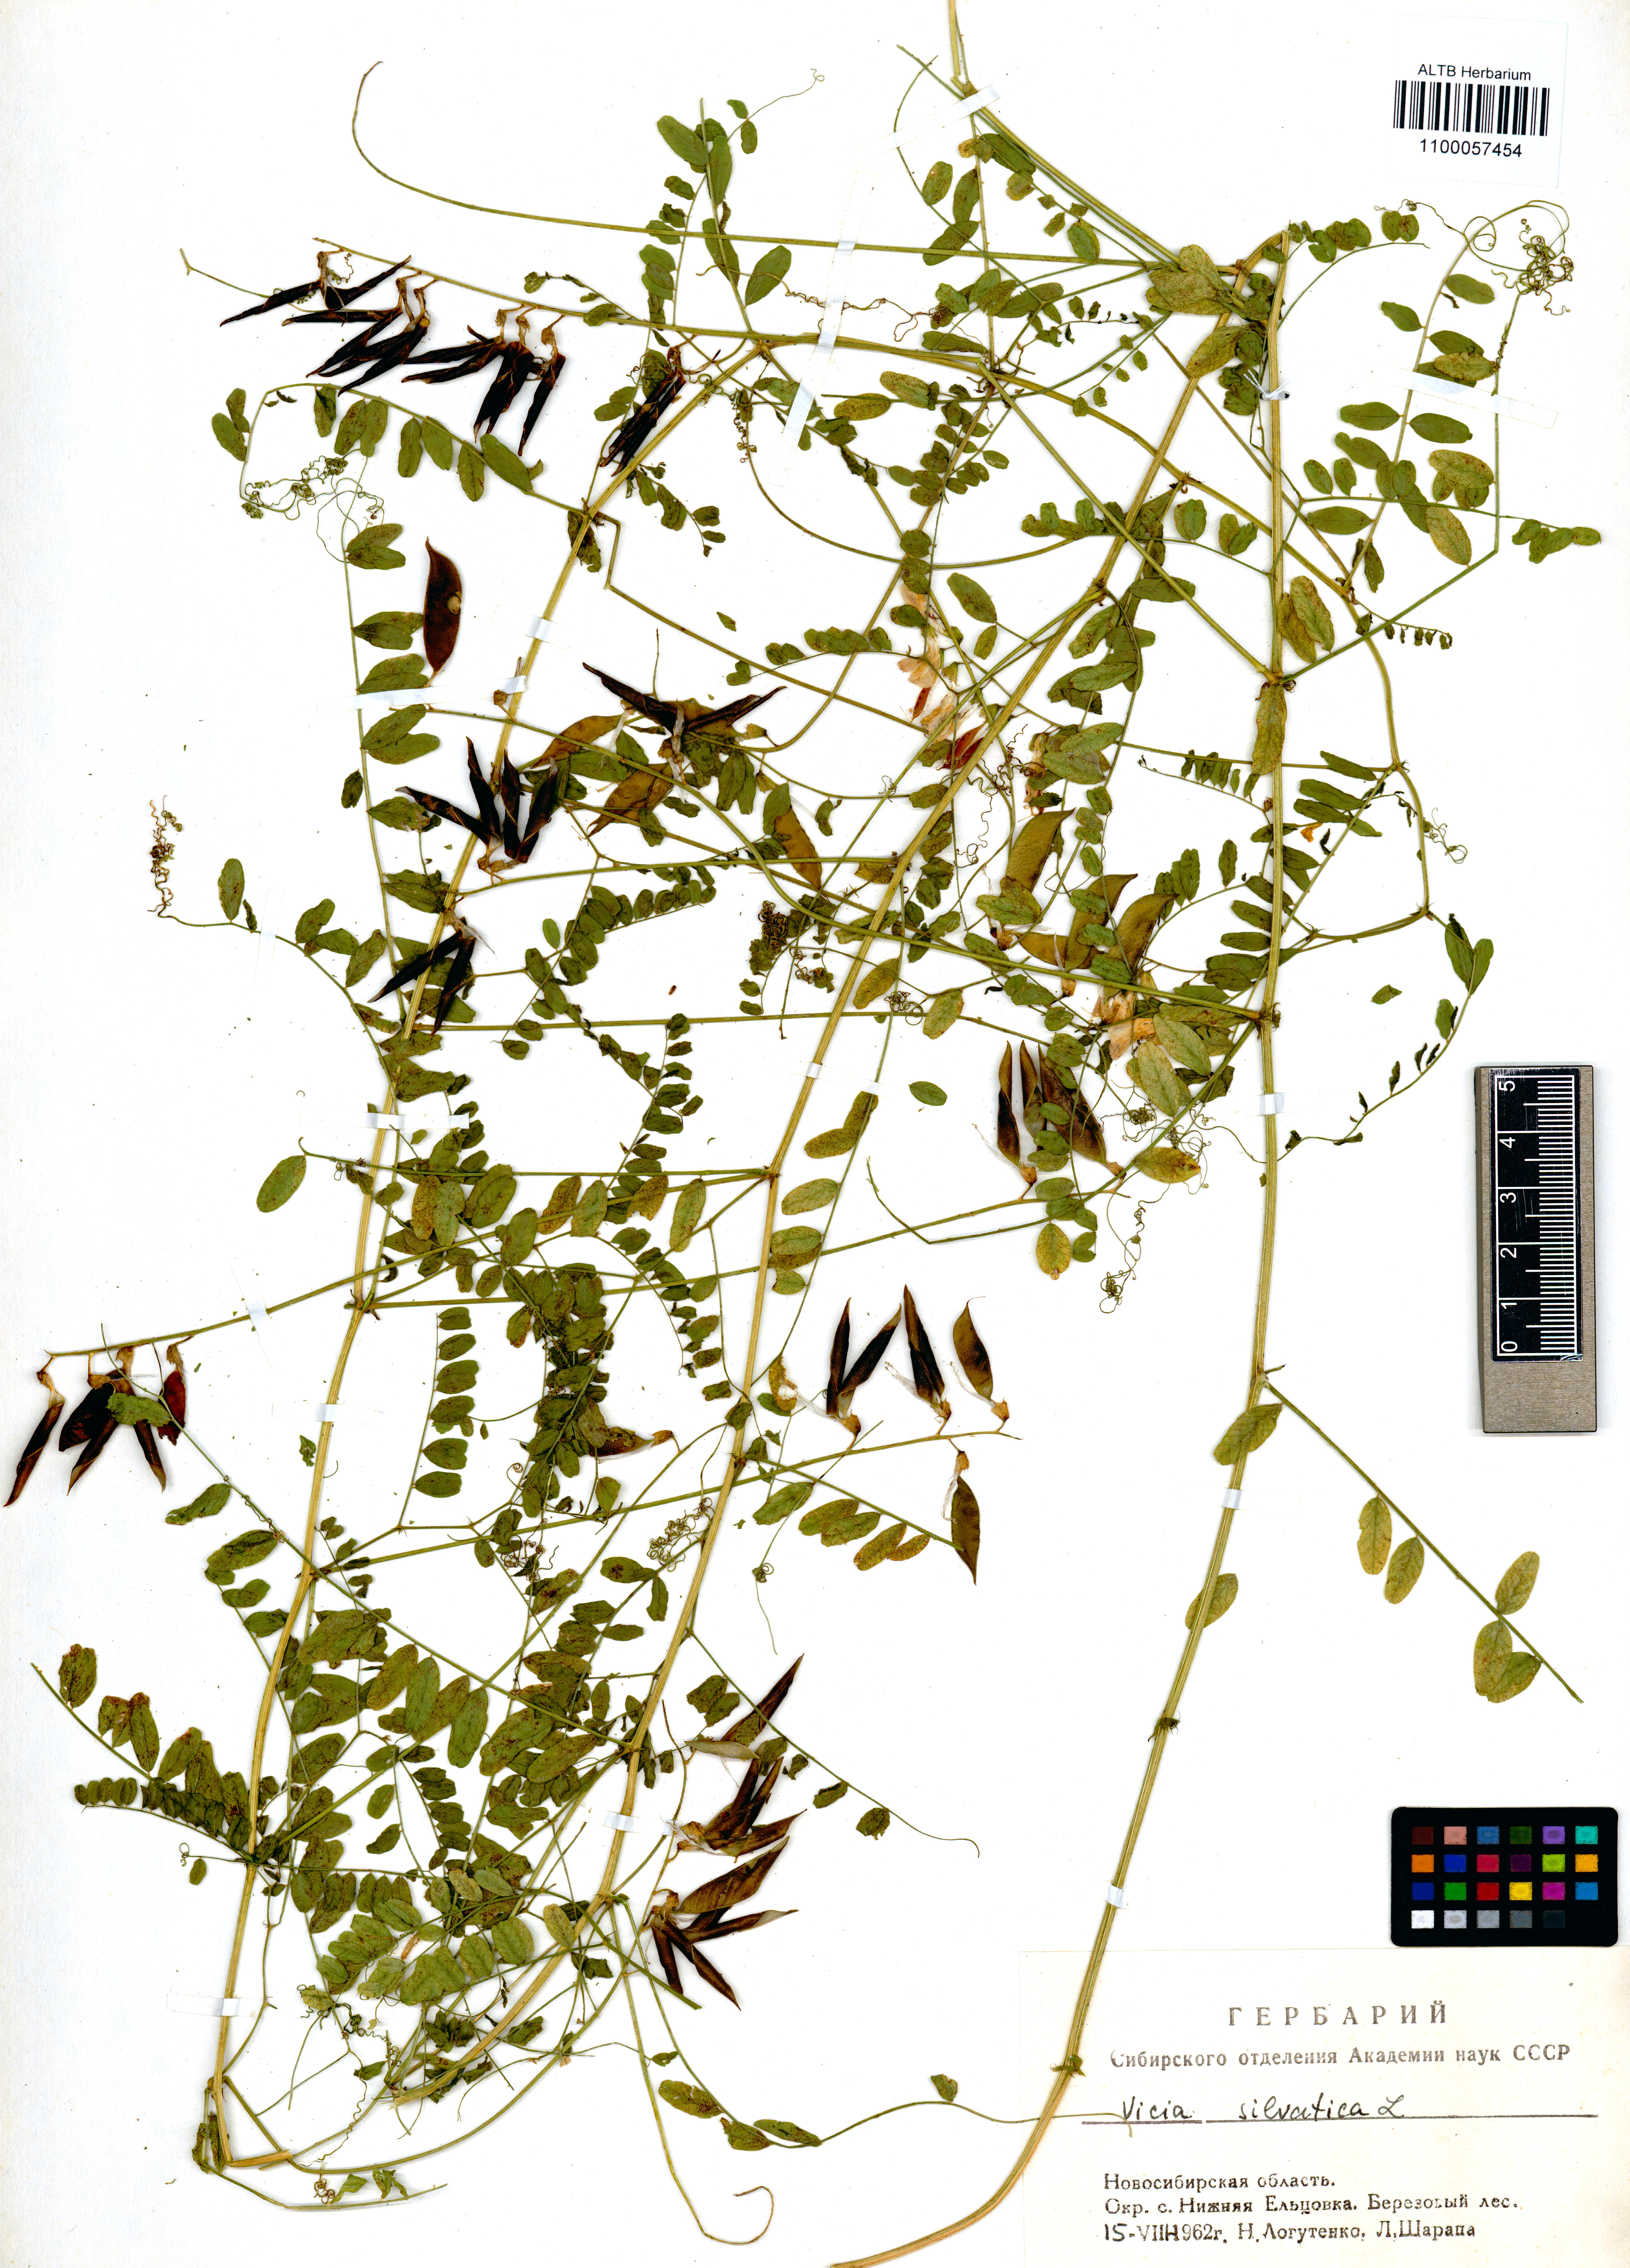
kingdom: Plantae
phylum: Tracheophyta
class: Magnoliopsida
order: Fabales
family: Fabaceae
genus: Vicia
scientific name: Vicia sylvatica
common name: Wood vetch
